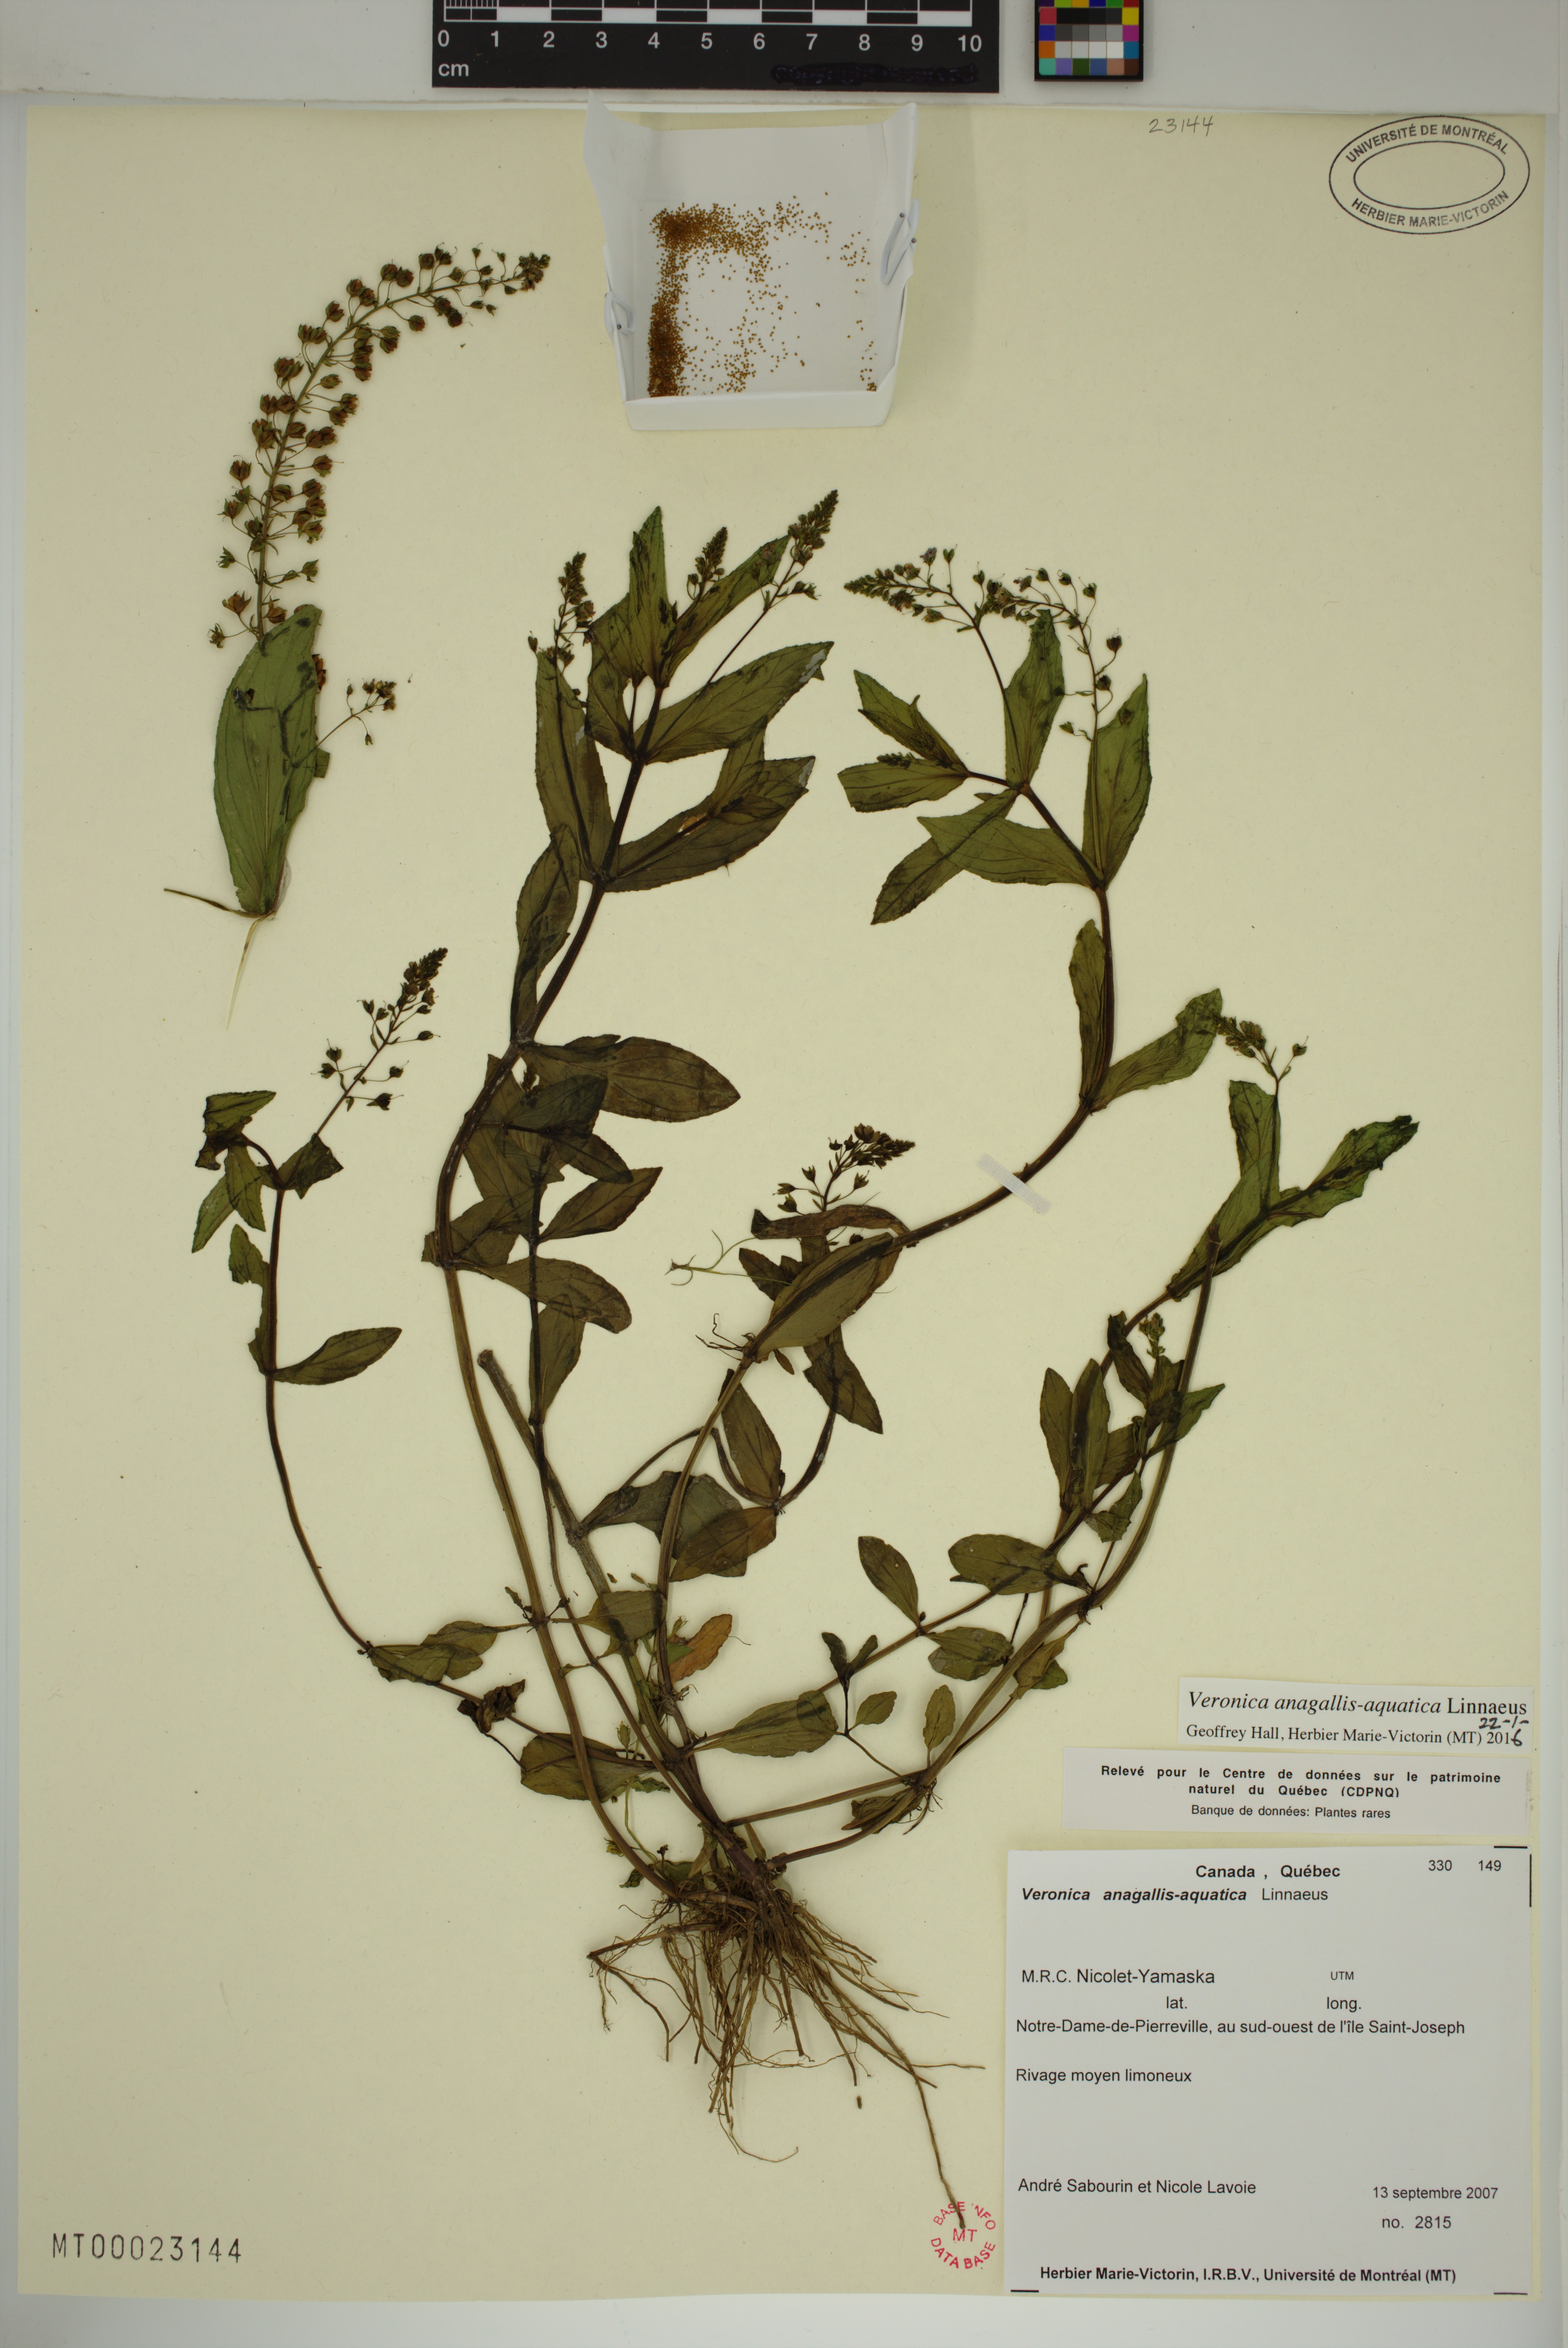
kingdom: Plantae
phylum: Tracheophyta
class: Magnoliopsida
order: Lamiales
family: Plantaginaceae
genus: Veronica
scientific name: Veronica anagallis-aquatica
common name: Water speedwell
